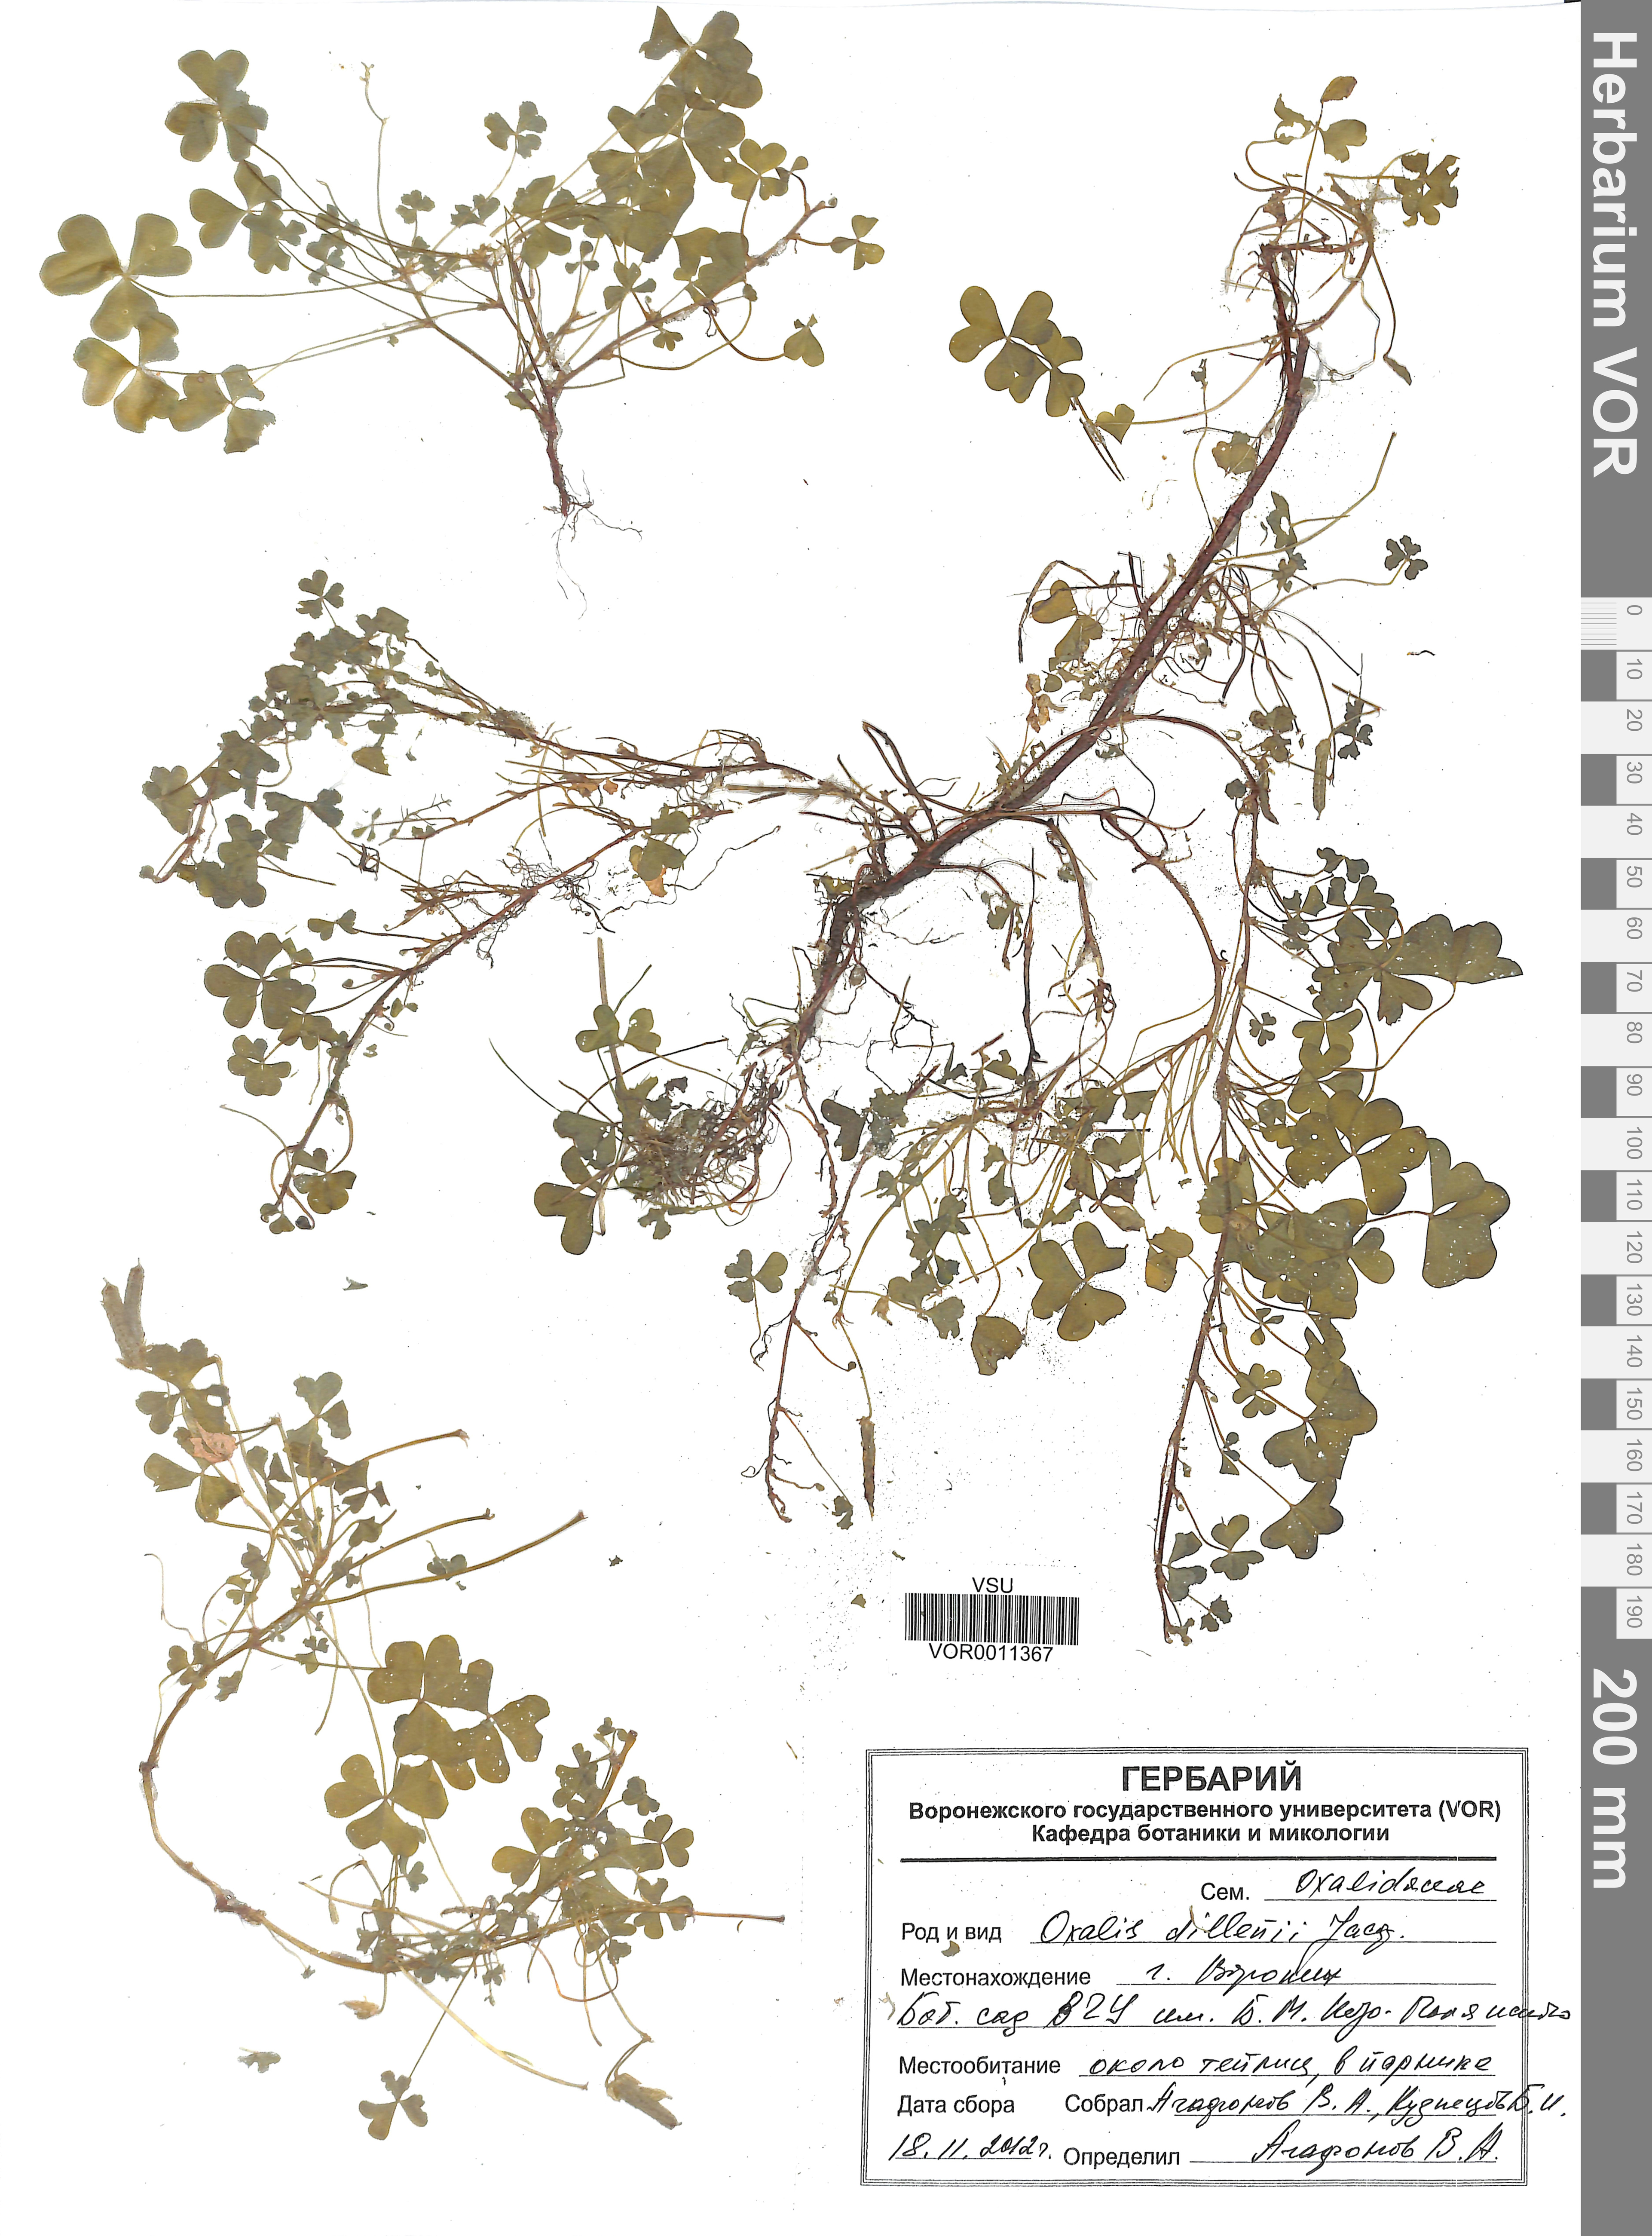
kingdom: Plantae
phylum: Tracheophyta
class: Magnoliopsida
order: Oxalidales
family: Oxalidaceae
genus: Oxalis
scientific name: Oxalis dillenii
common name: Sussex yellow-sorrel
